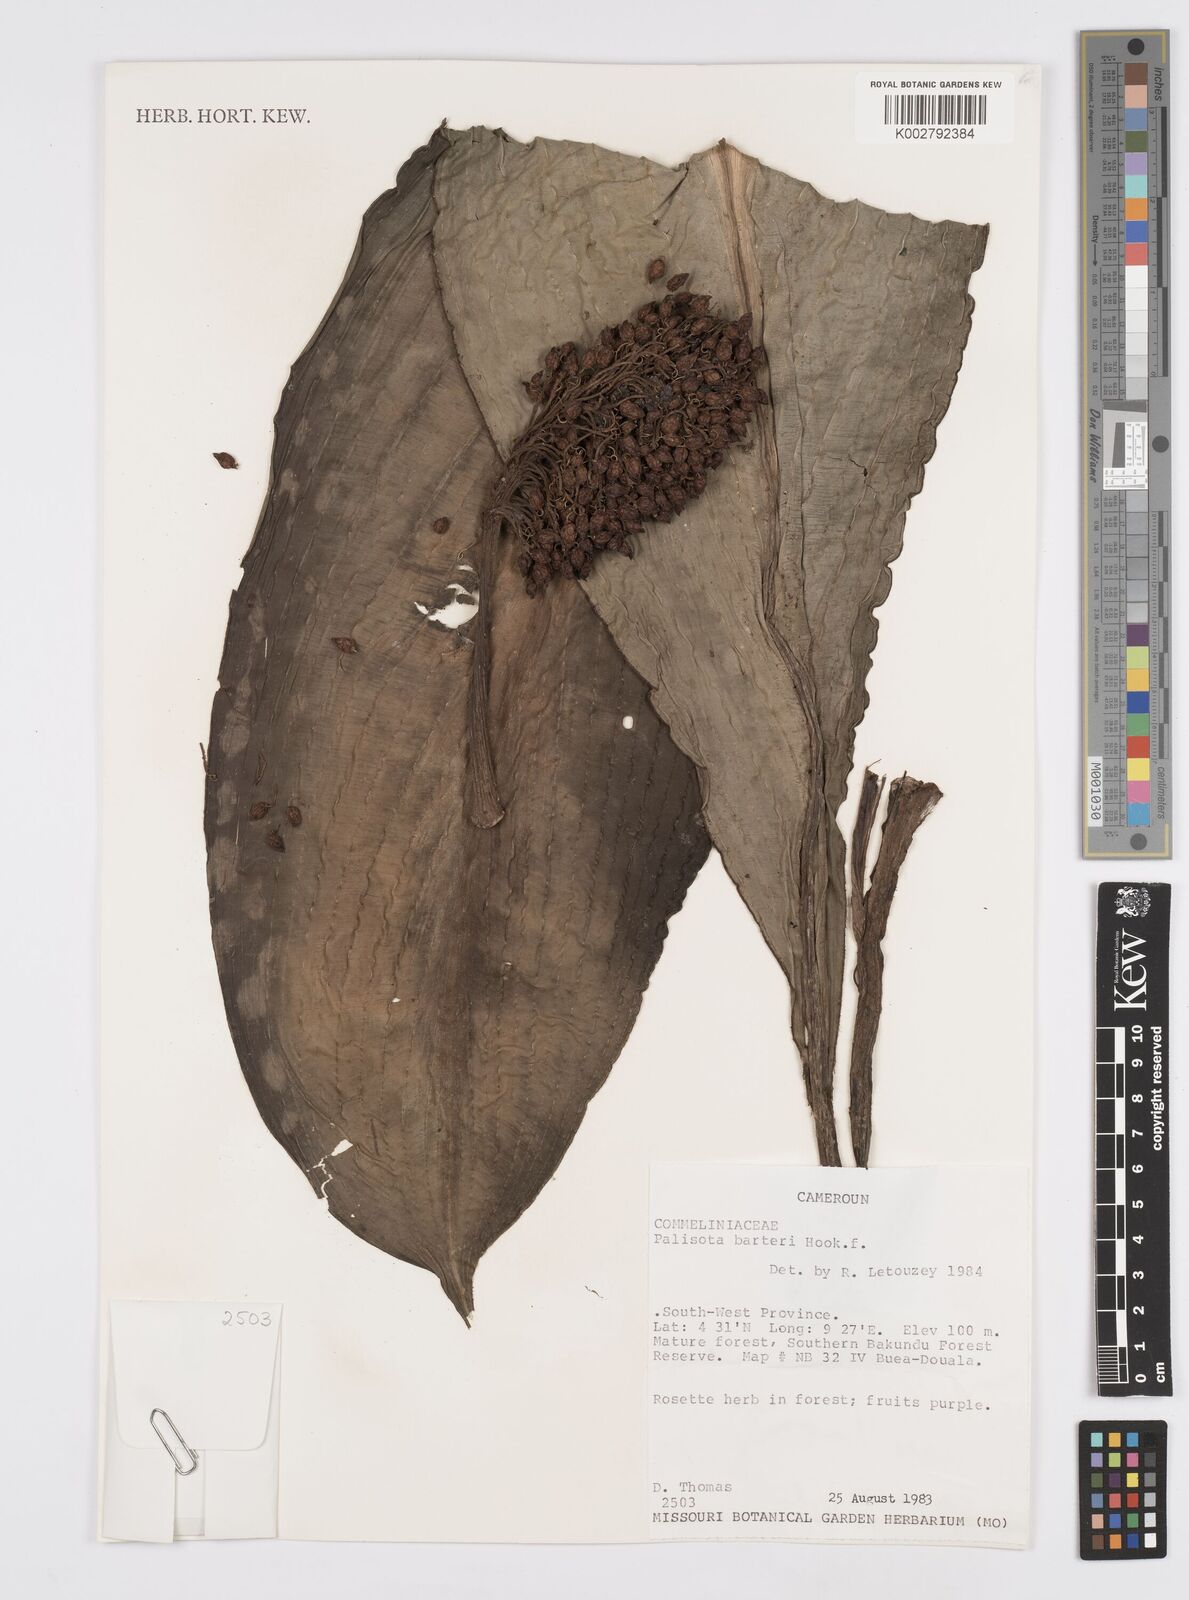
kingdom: Plantae
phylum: Tracheophyta
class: Liliopsida
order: Commelinales
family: Commelinaceae
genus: Palisota
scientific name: Palisota barteri
